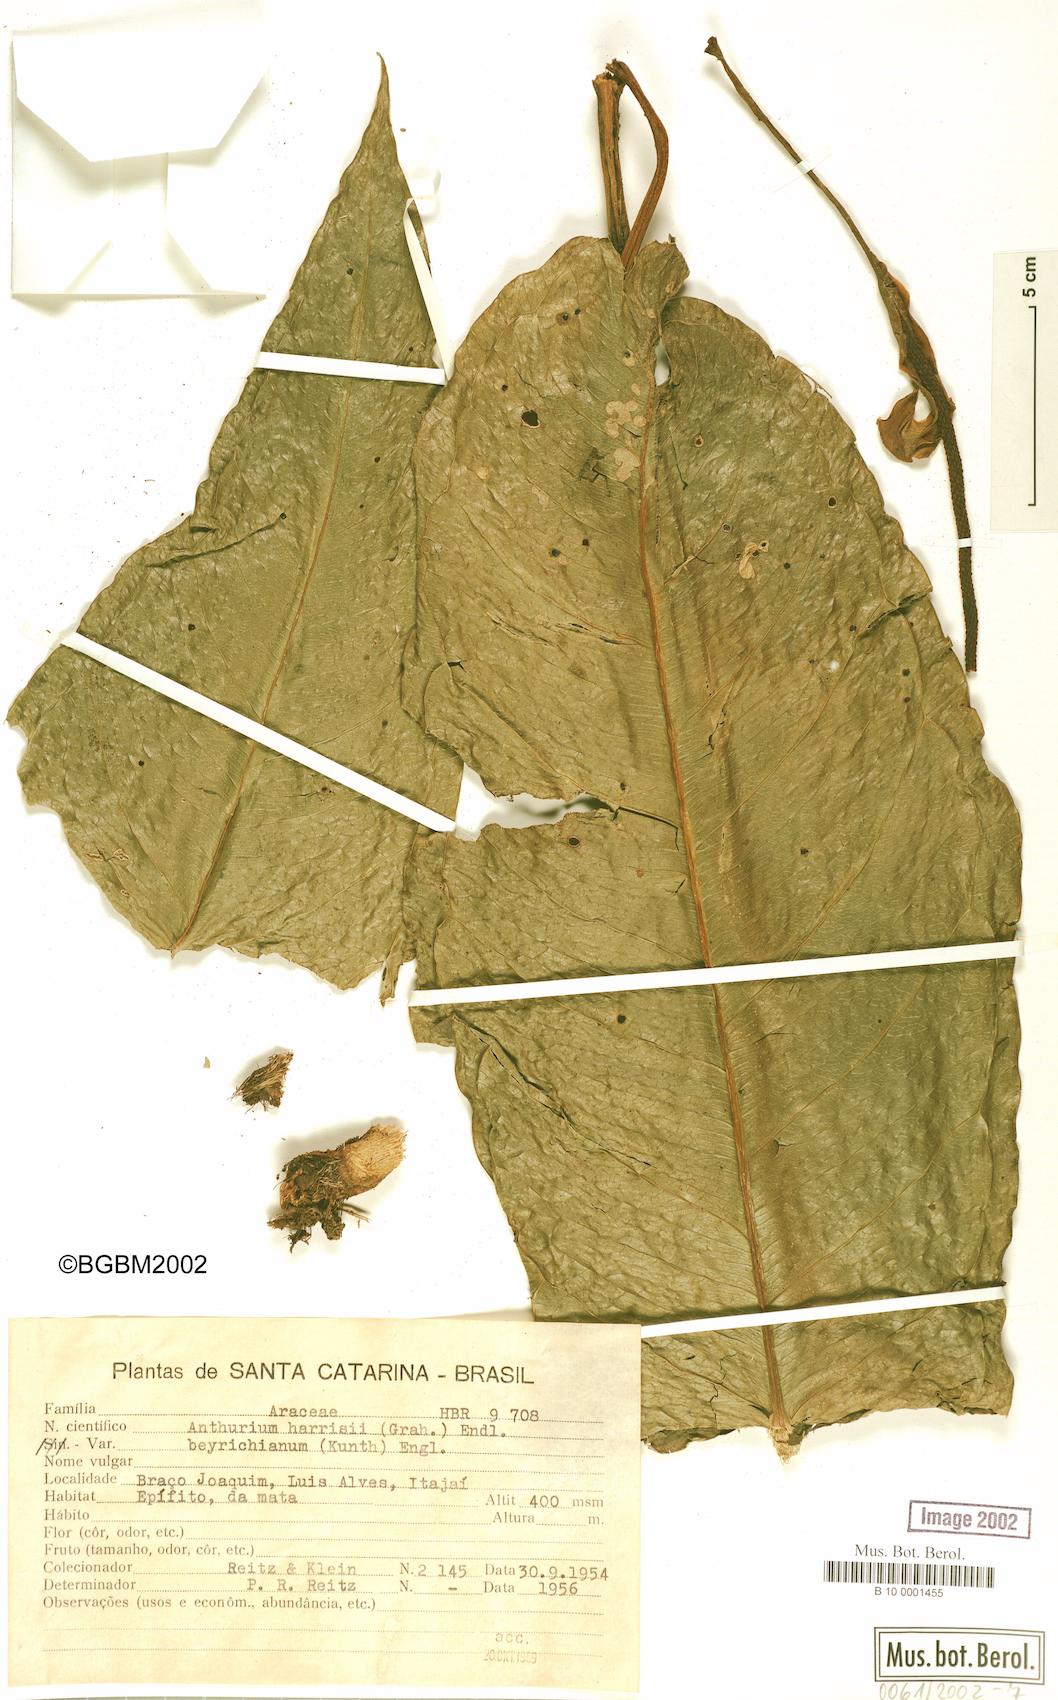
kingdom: Plantae
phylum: Tracheophyta
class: Liliopsida
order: Alismatales
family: Araceae
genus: Anthurium
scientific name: Anthurium intermedium
